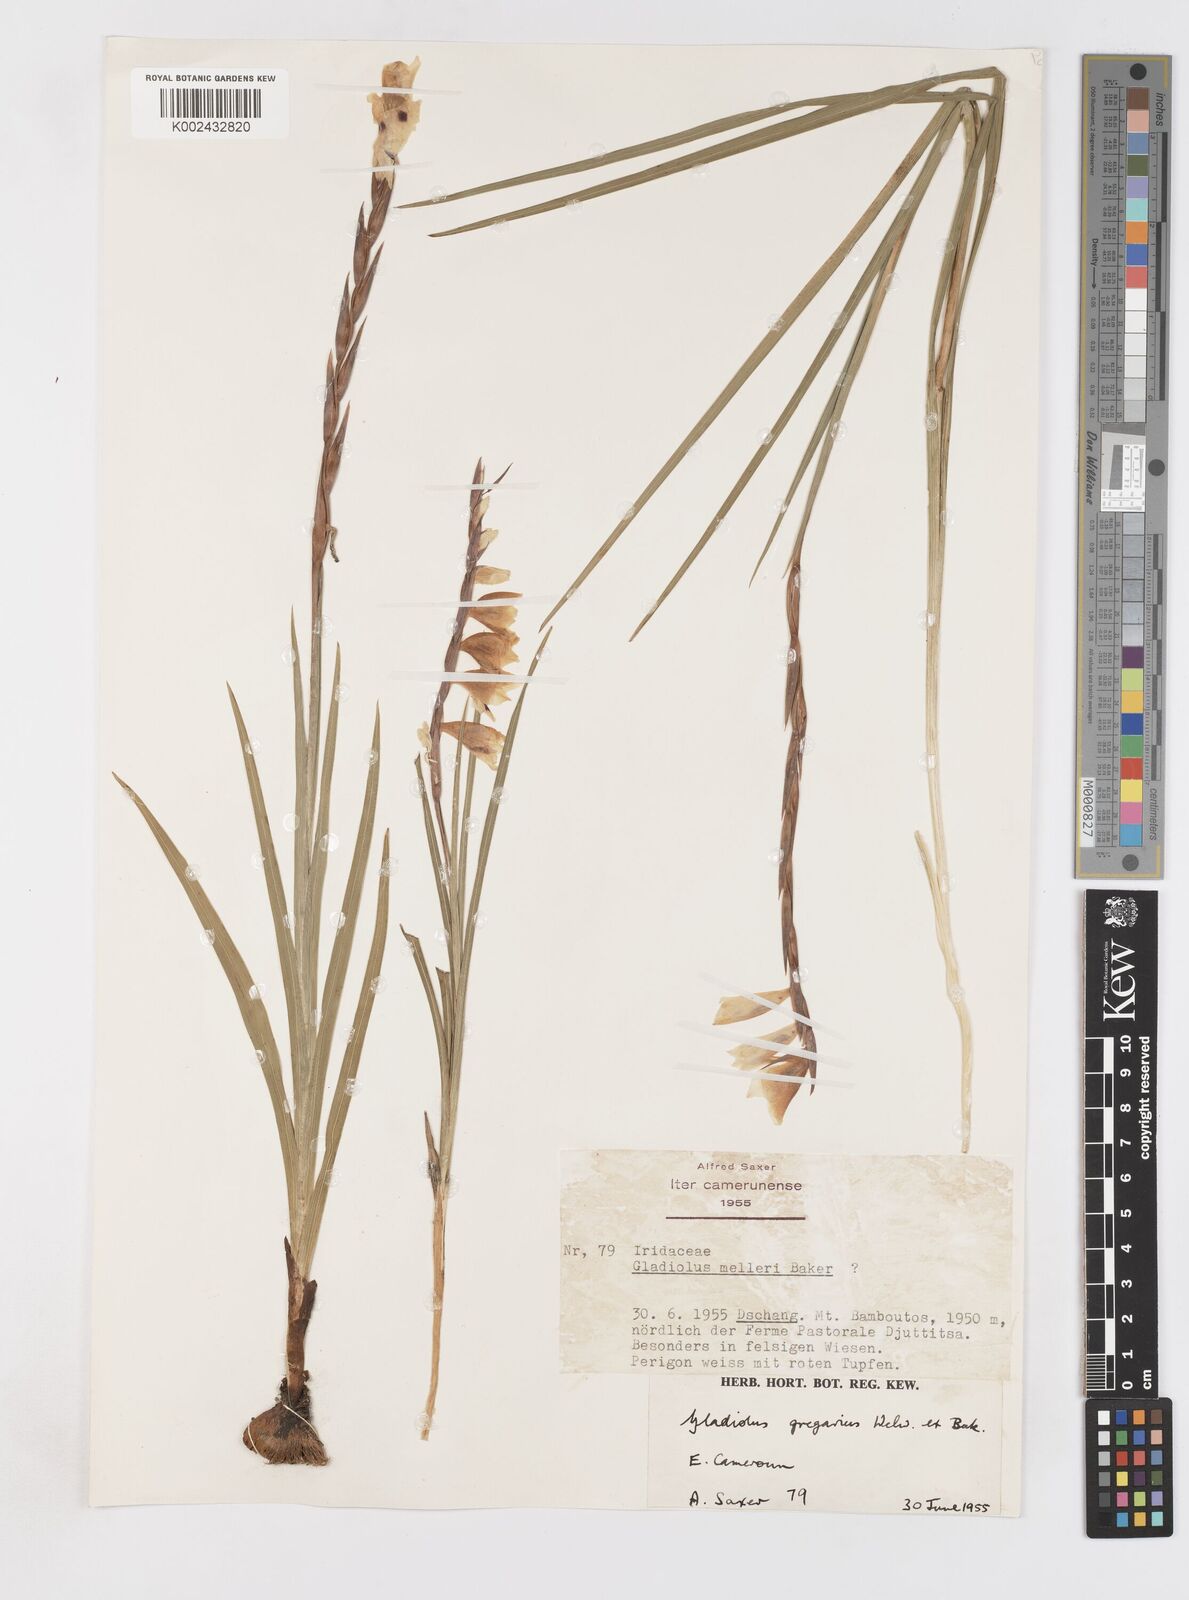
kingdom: Plantae
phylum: Tracheophyta
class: Liliopsida
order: Asparagales
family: Iridaceae
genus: Gladiolus
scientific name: Gladiolus gregarius
